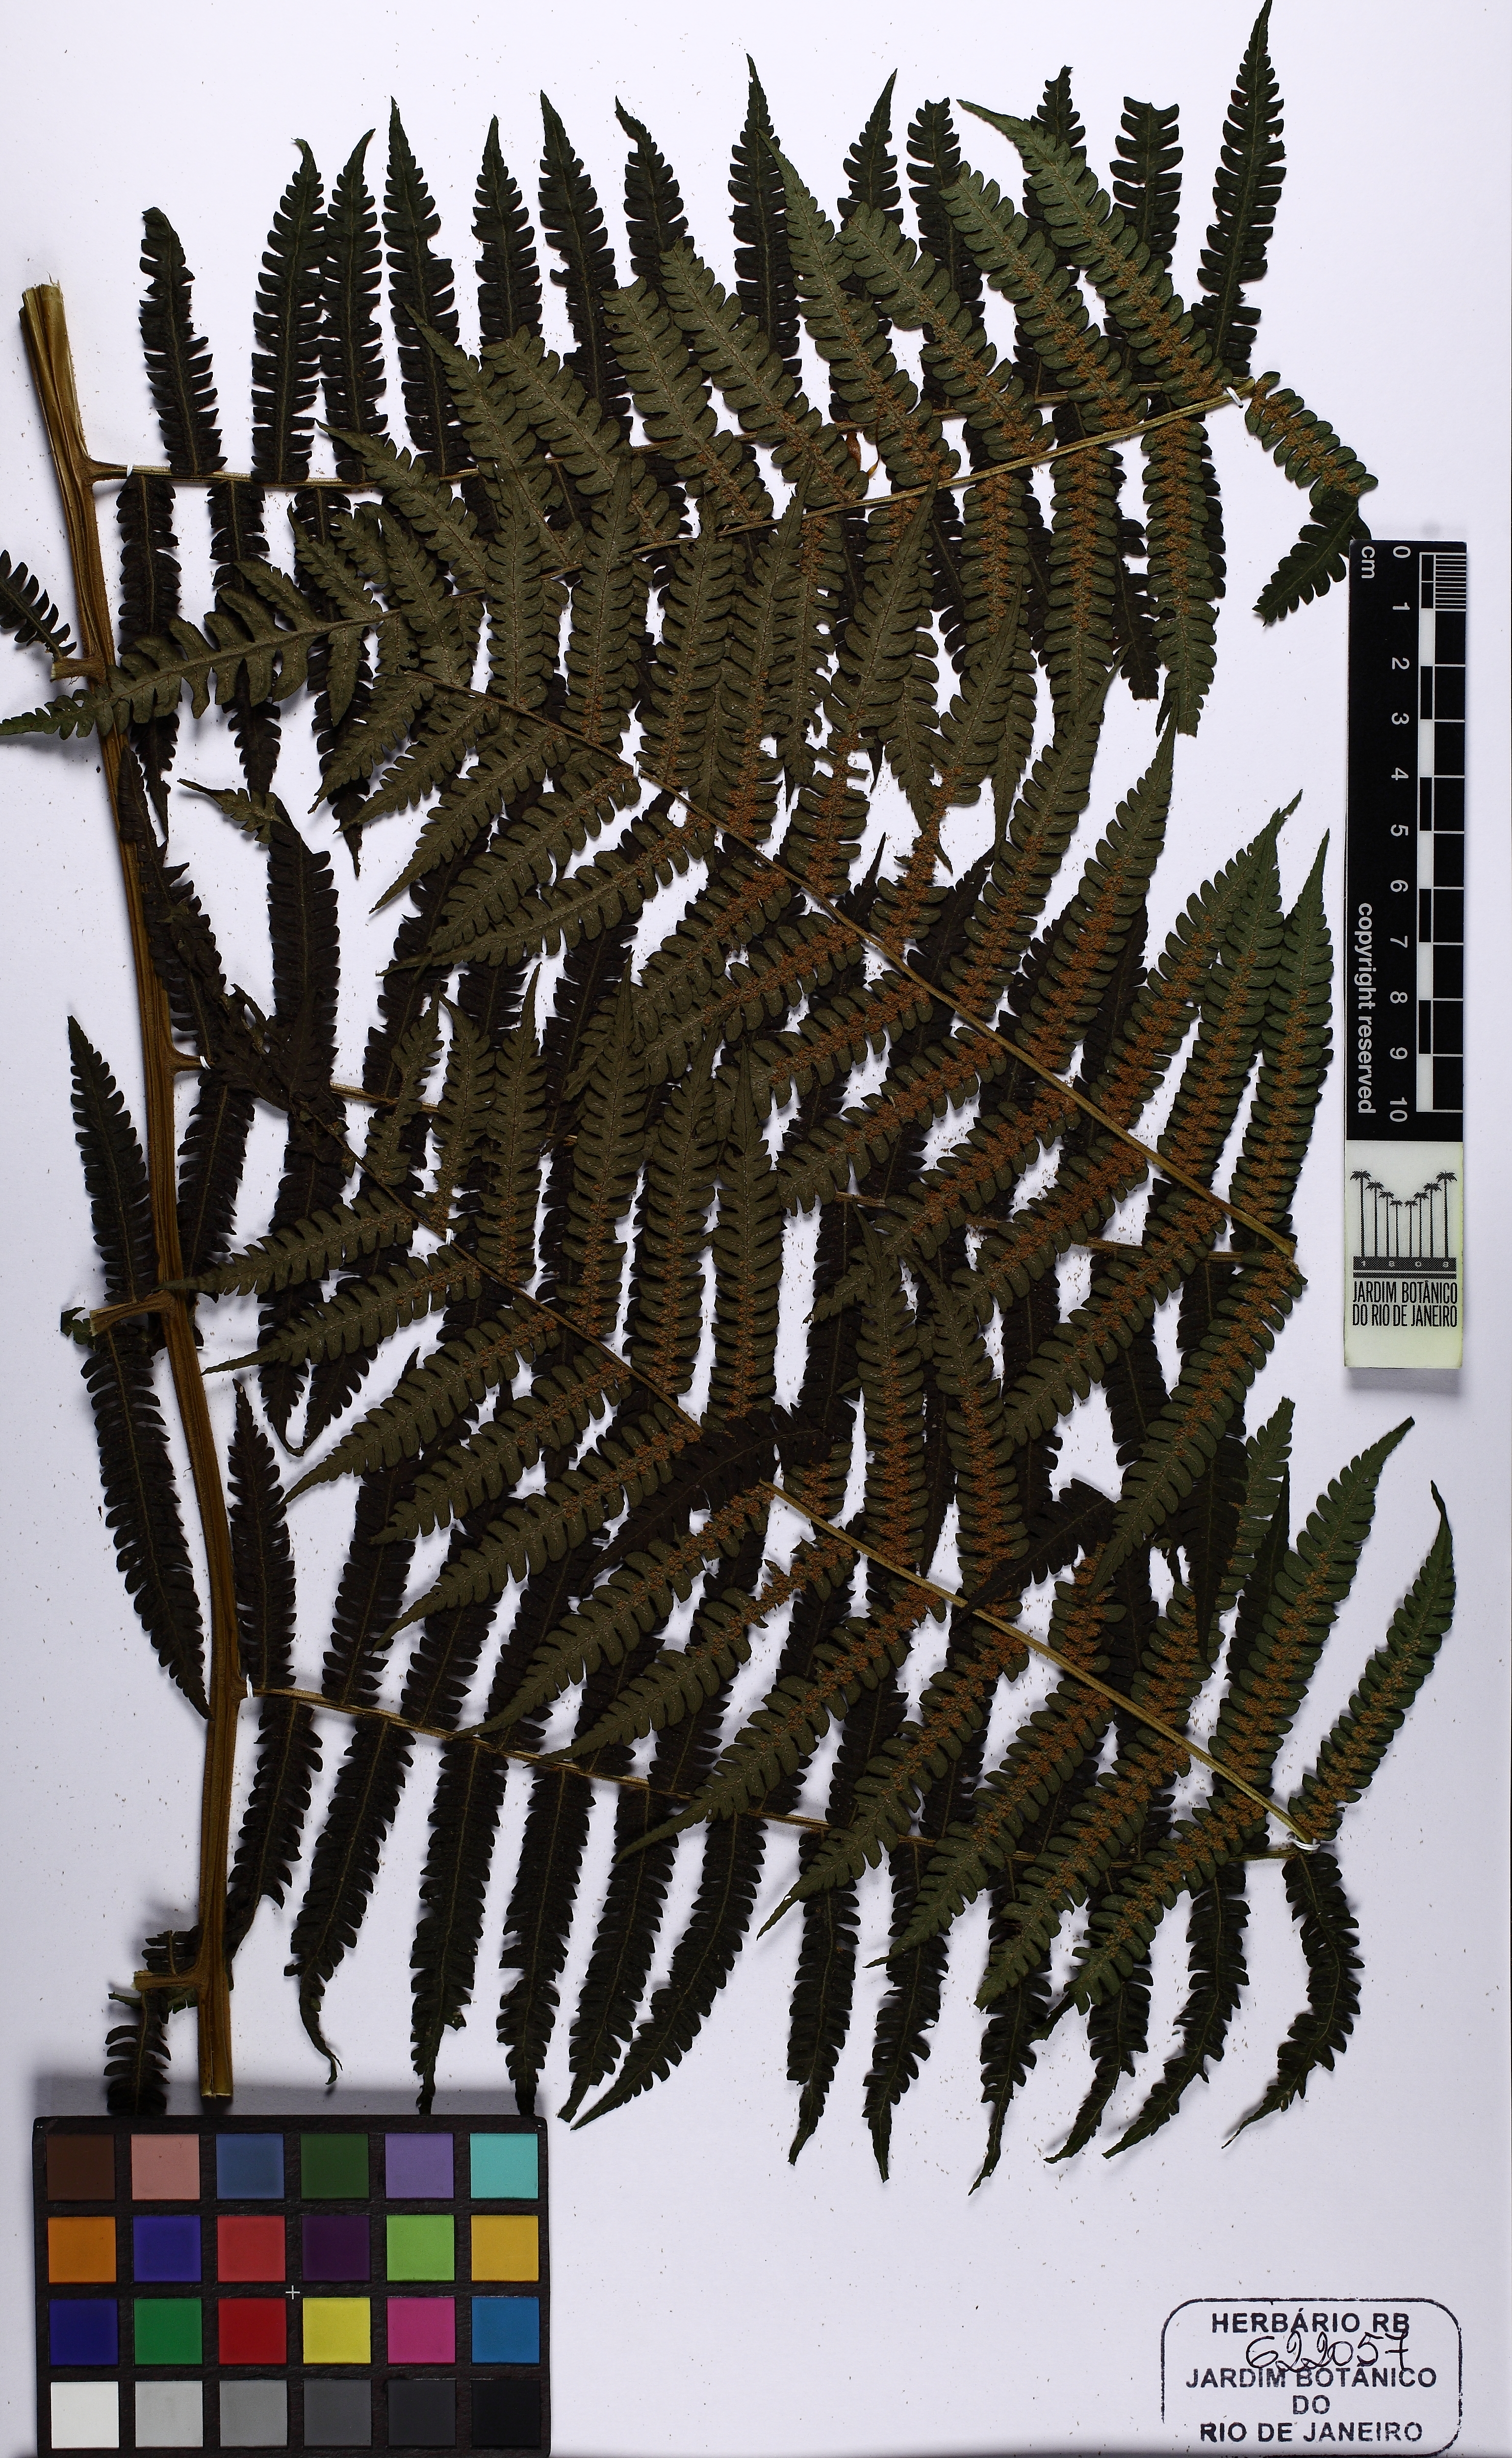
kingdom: Plantae
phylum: Tracheophyta
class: Polypodiopsida
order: Cyatheales
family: Cyatheaceae
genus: Cyathea
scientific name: Cyathea phalerata
